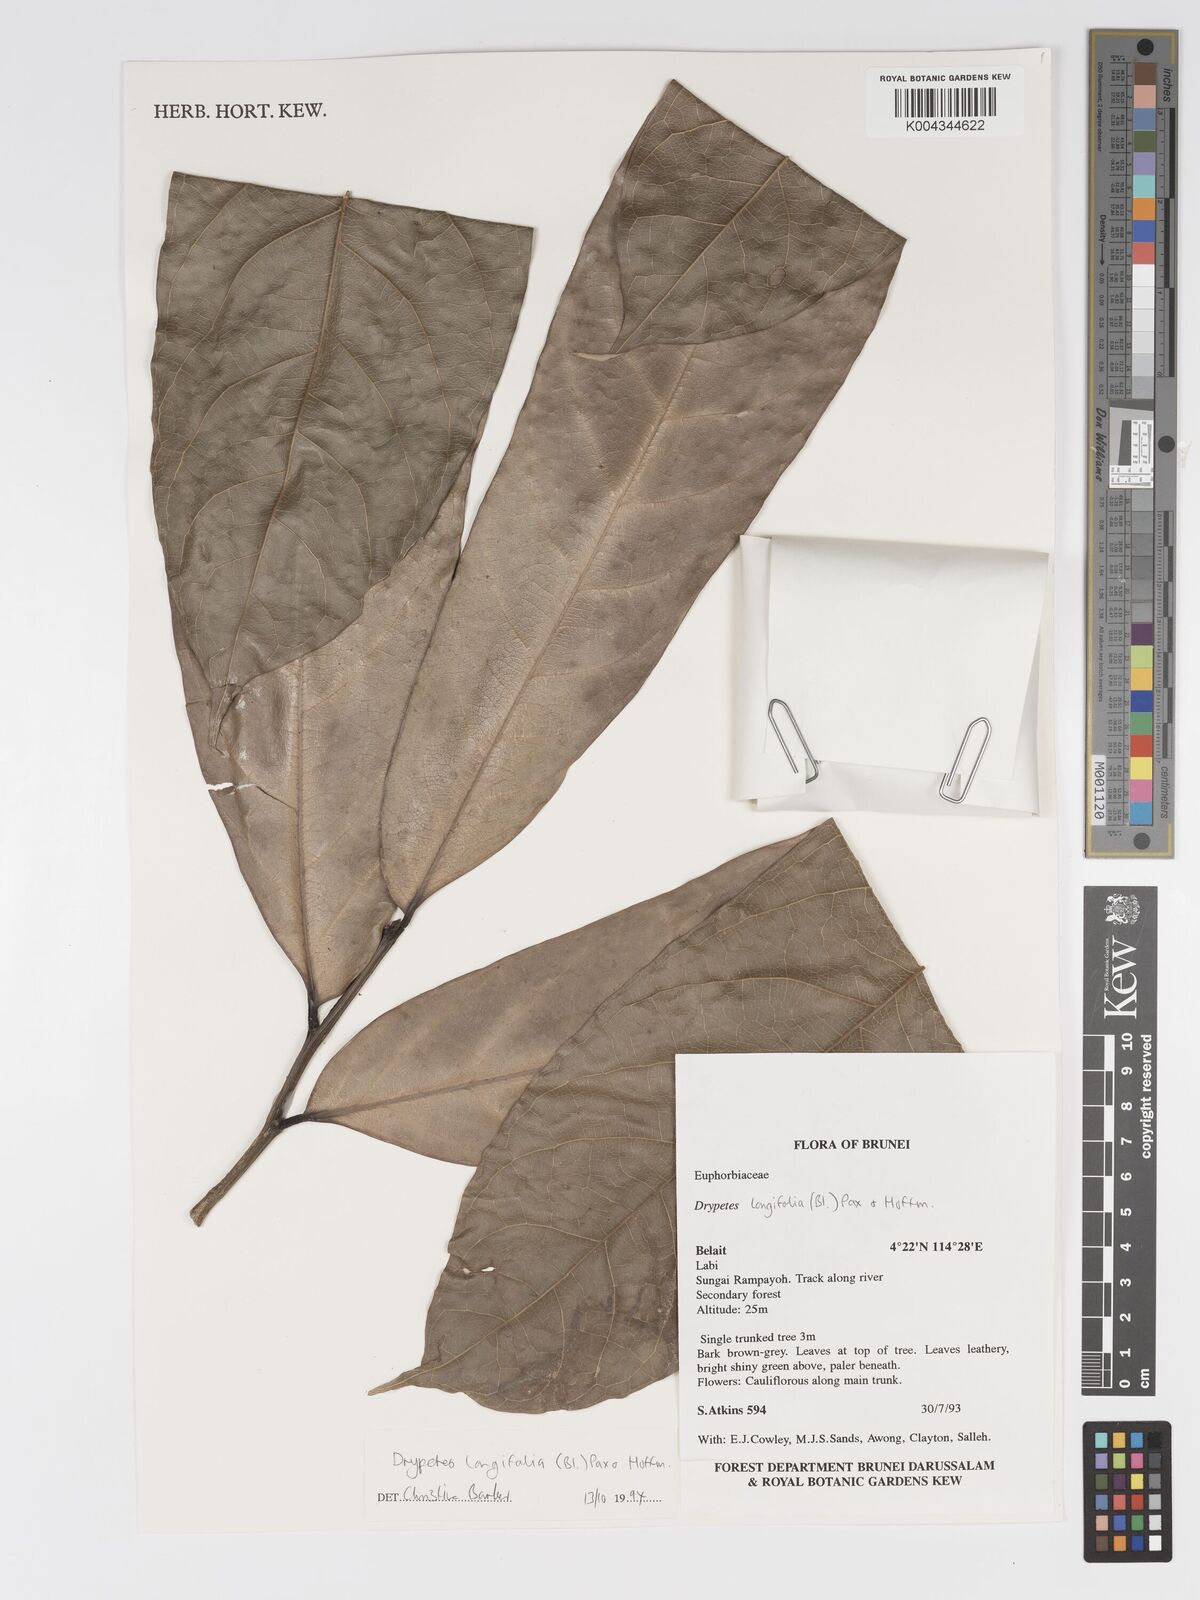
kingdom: Plantae
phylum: Tracheophyta
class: Magnoliopsida
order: Malpighiales
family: Putranjivaceae
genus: Drypetes
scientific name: Drypetes longifolia
